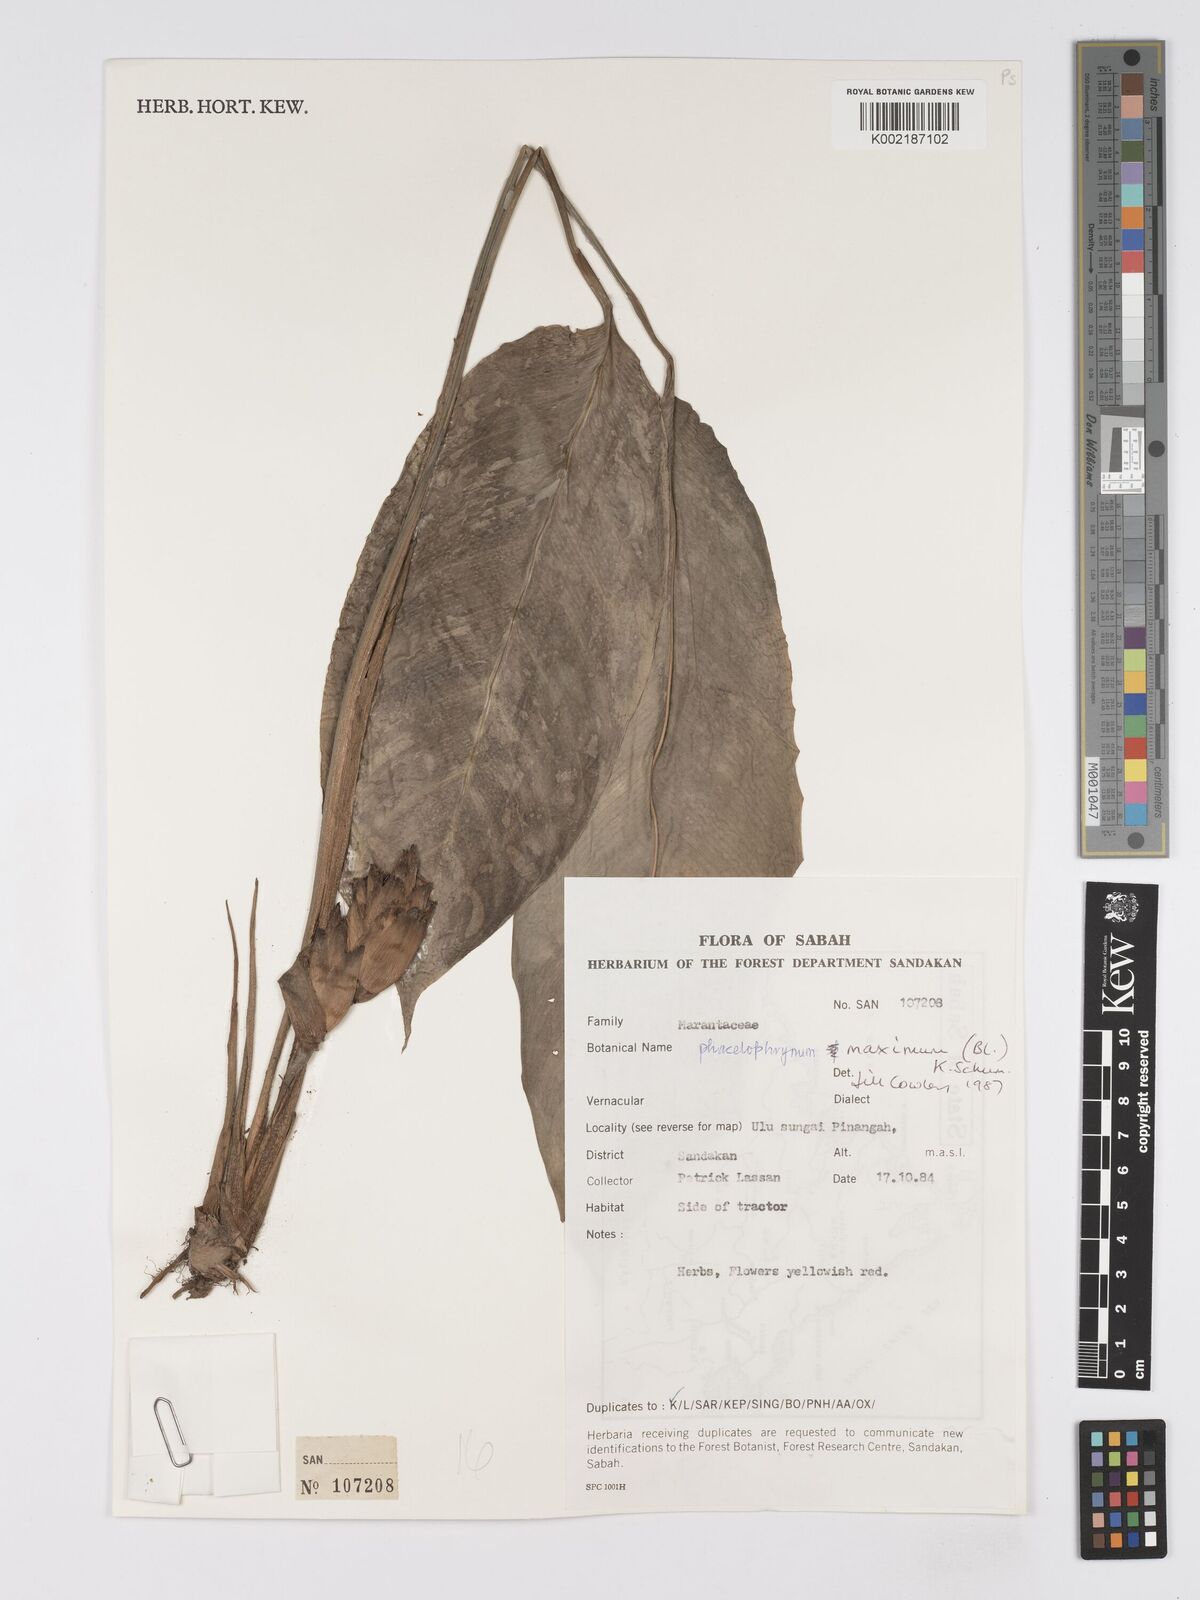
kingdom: Plantae
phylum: Tracheophyta
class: Liliopsida
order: Zingiberales
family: Marantaceae
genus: Phrynium
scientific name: Phrynium maximum
